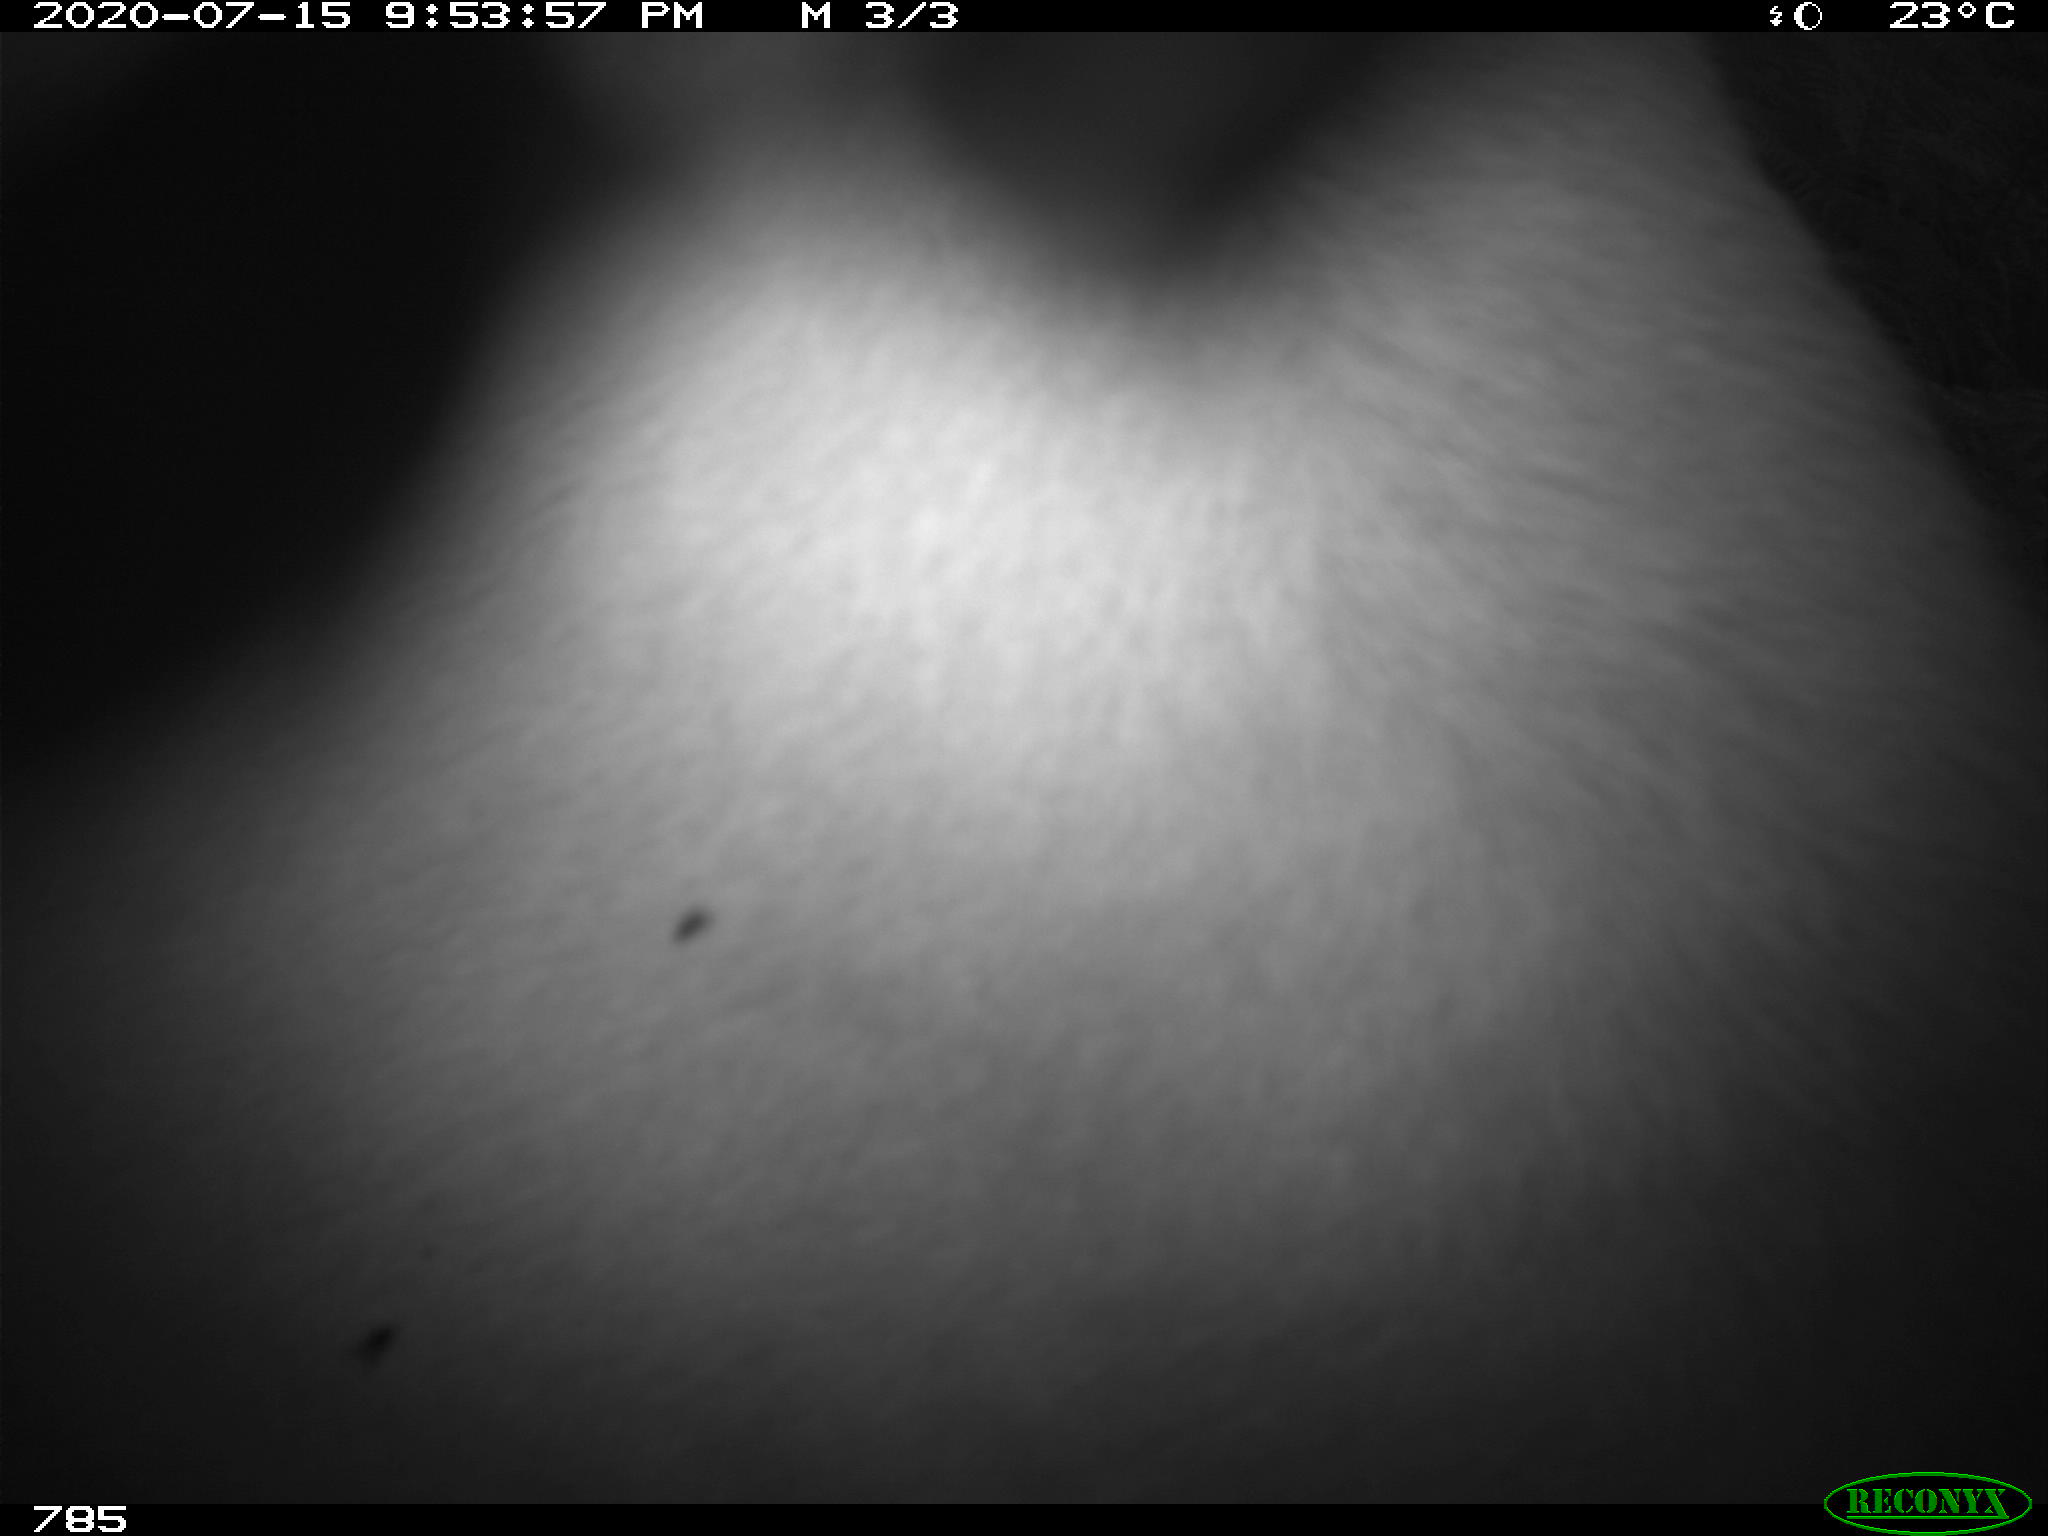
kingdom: Animalia
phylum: Chordata
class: Mammalia
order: Artiodactyla
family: Bovidae
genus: Bos
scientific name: Bos taurus
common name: Domesticated cattle
